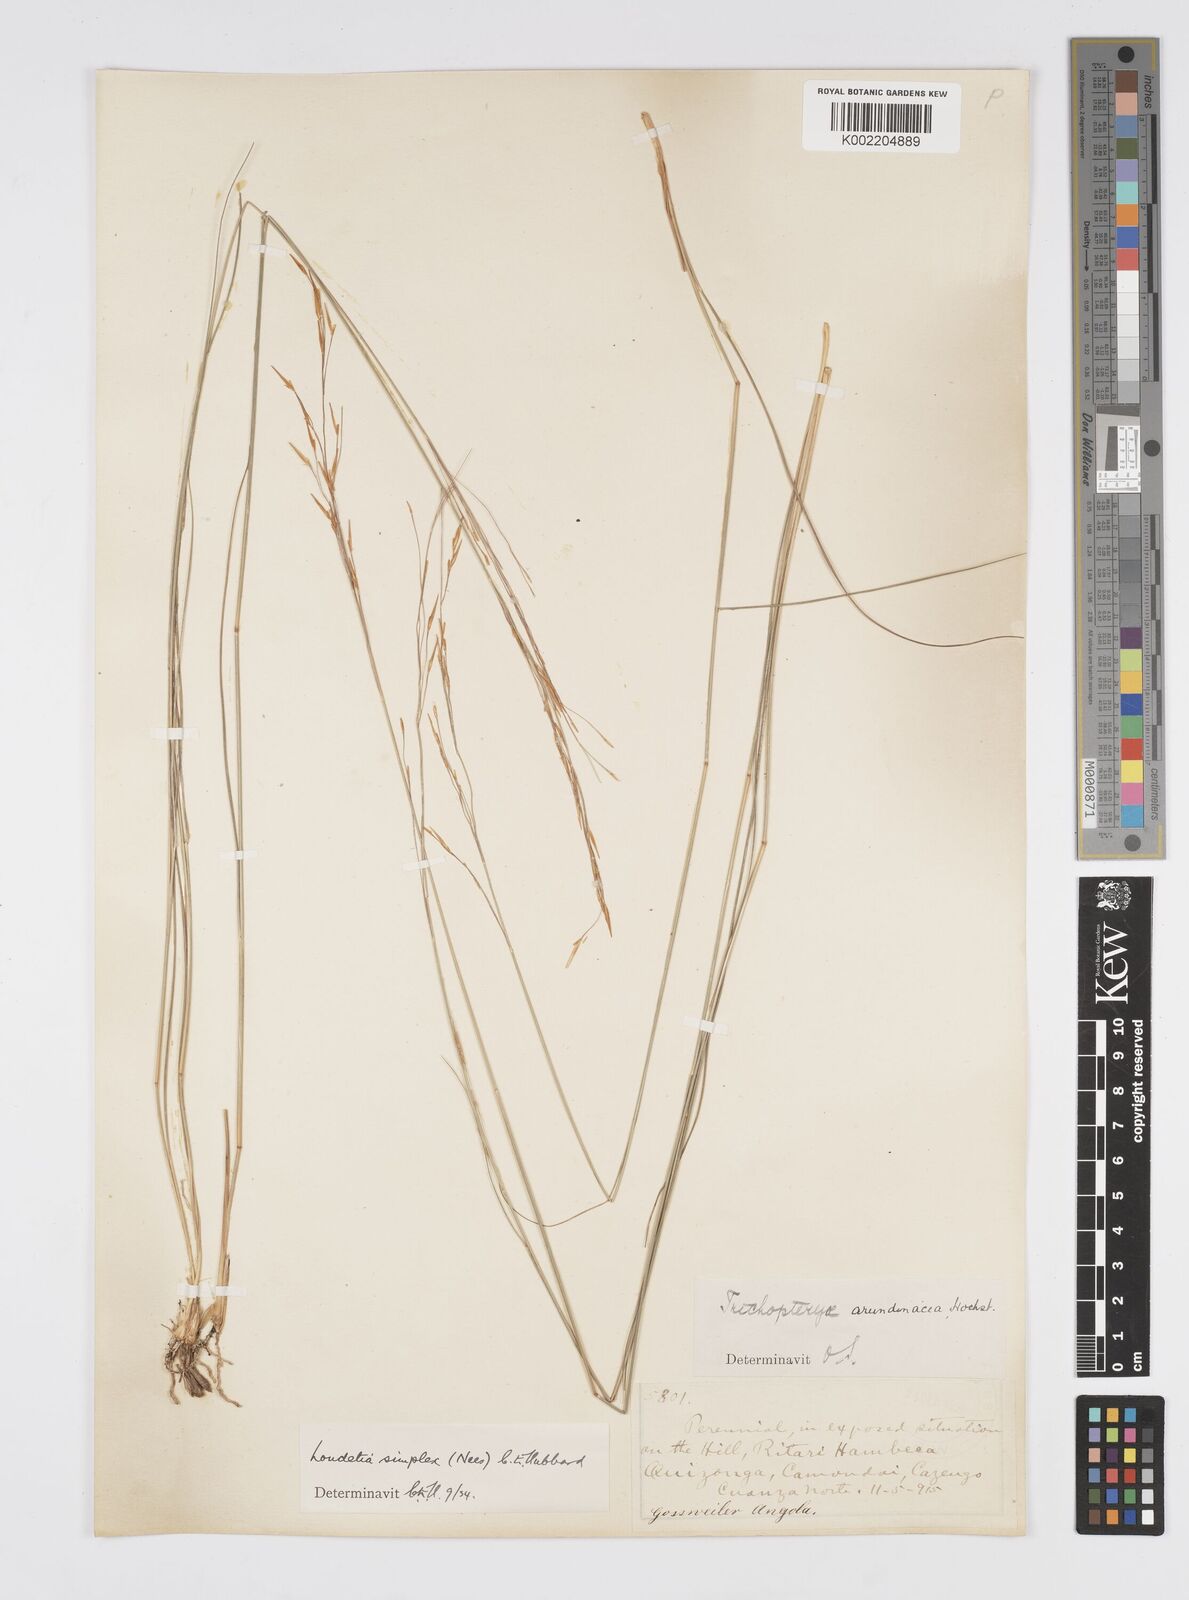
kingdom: Plantae
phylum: Tracheophyta
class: Liliopsida
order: Poales
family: Poaceae
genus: Loudetia
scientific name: Loudetia simplex
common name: Common russet grass
